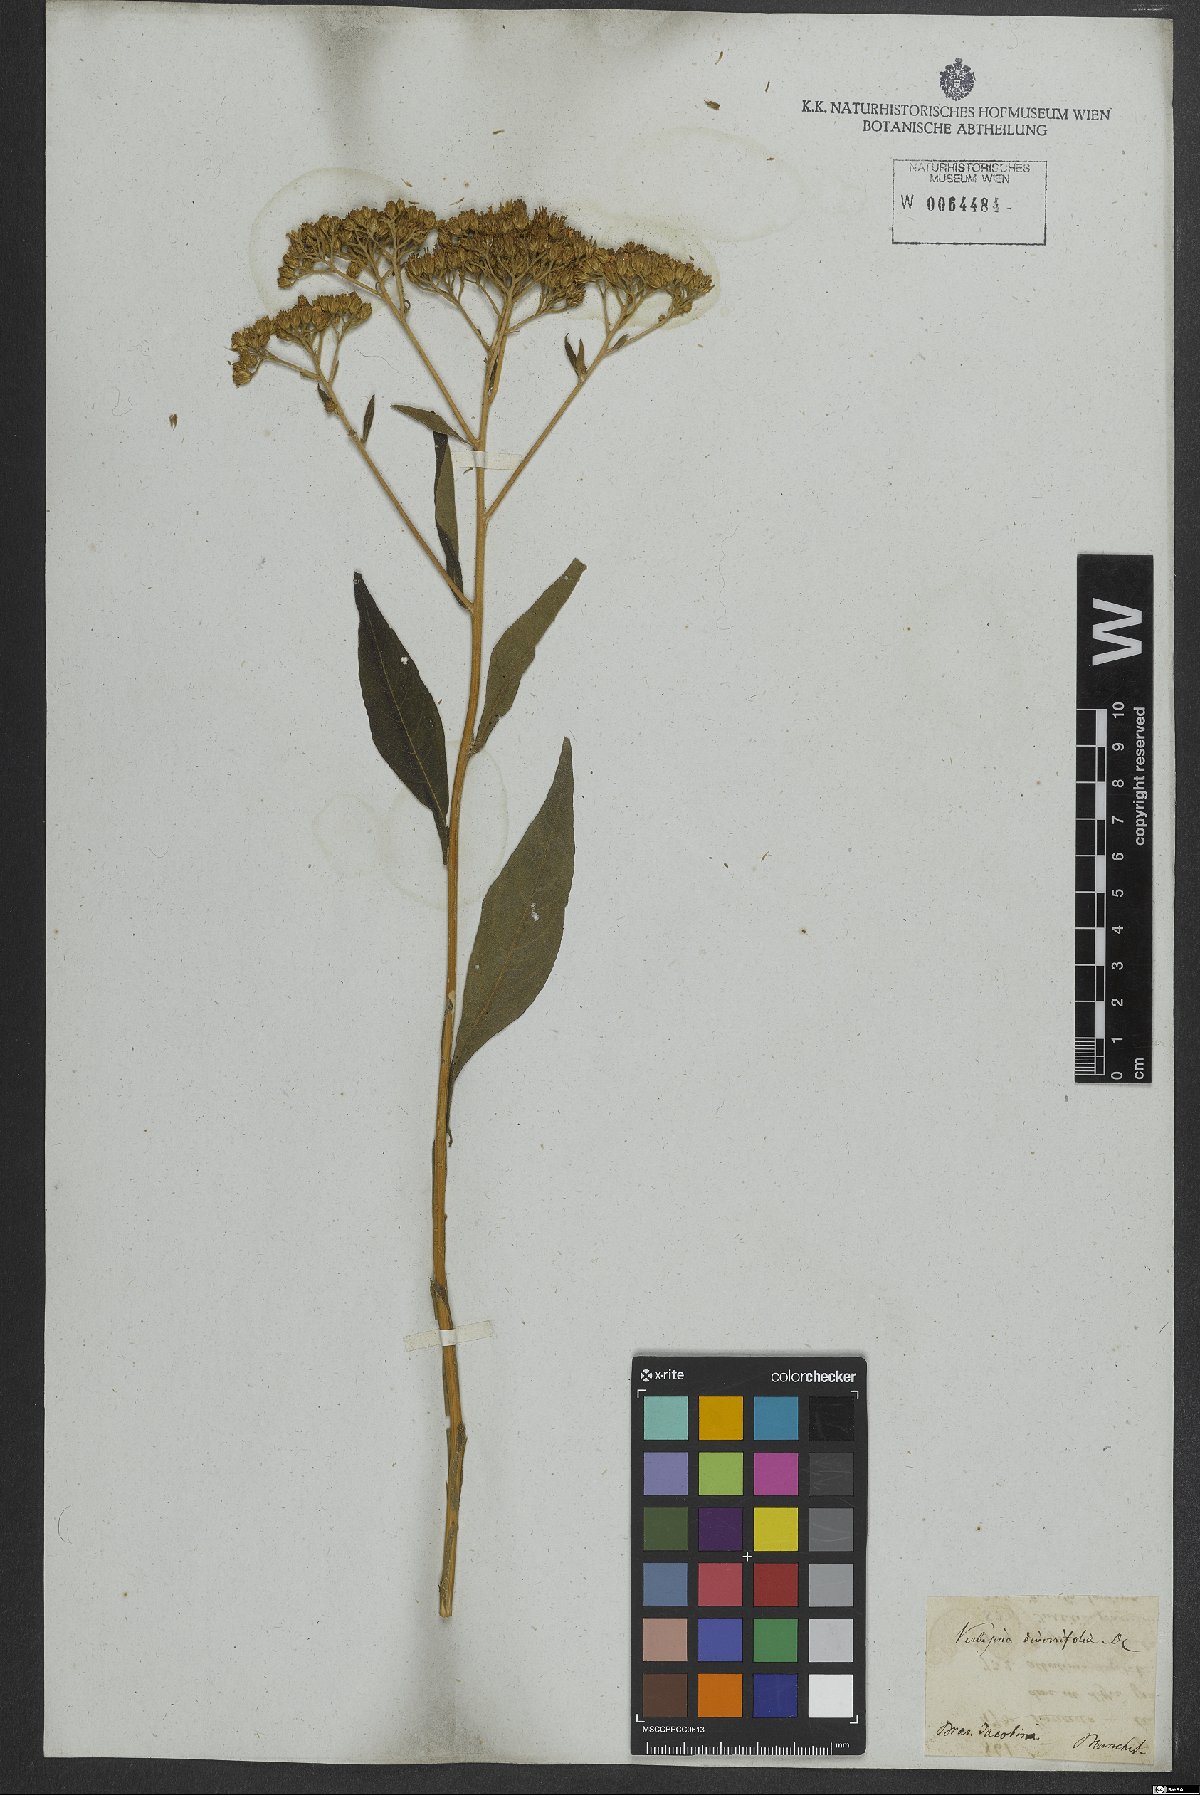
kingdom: Plantae
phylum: Tracheophyta
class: Magnoliopsida
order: Asterales
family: Asteraceae
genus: Vernonia
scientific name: Vernonia diversifolia
